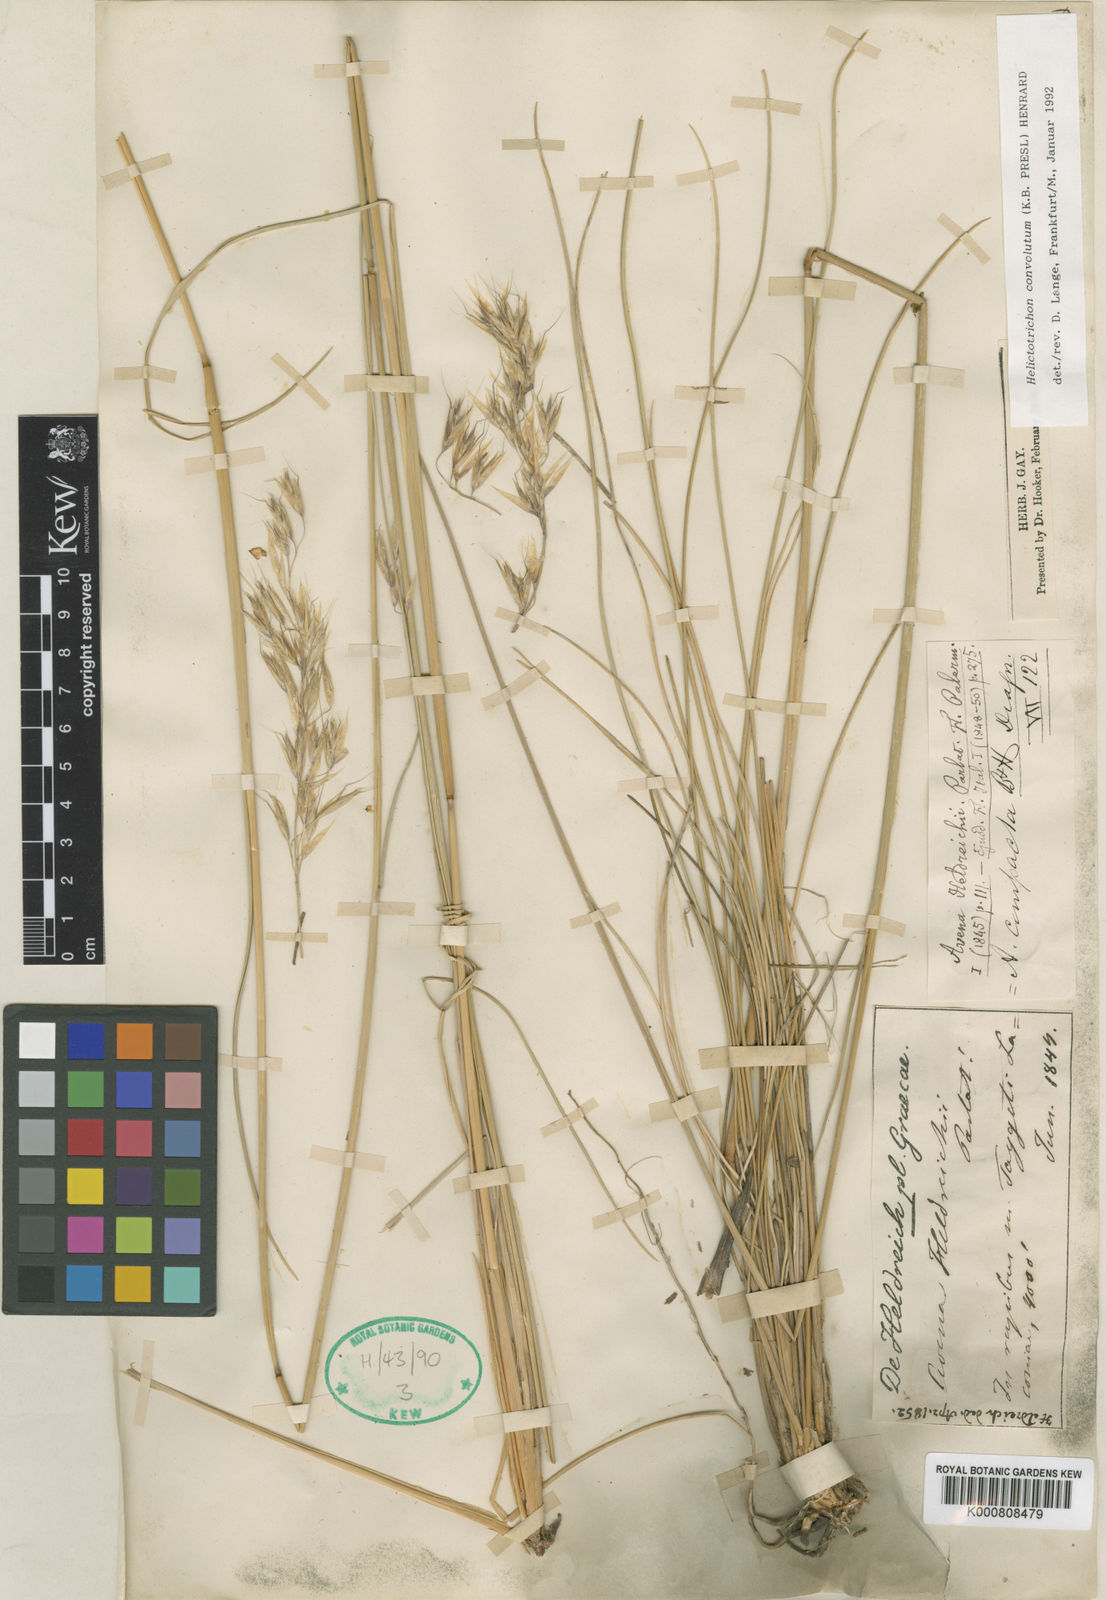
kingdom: Plantae
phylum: Tracheophyta
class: Liliopsida
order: Poales
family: Poaceae
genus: Helictotrichon
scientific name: Helictotrichon convolutum
